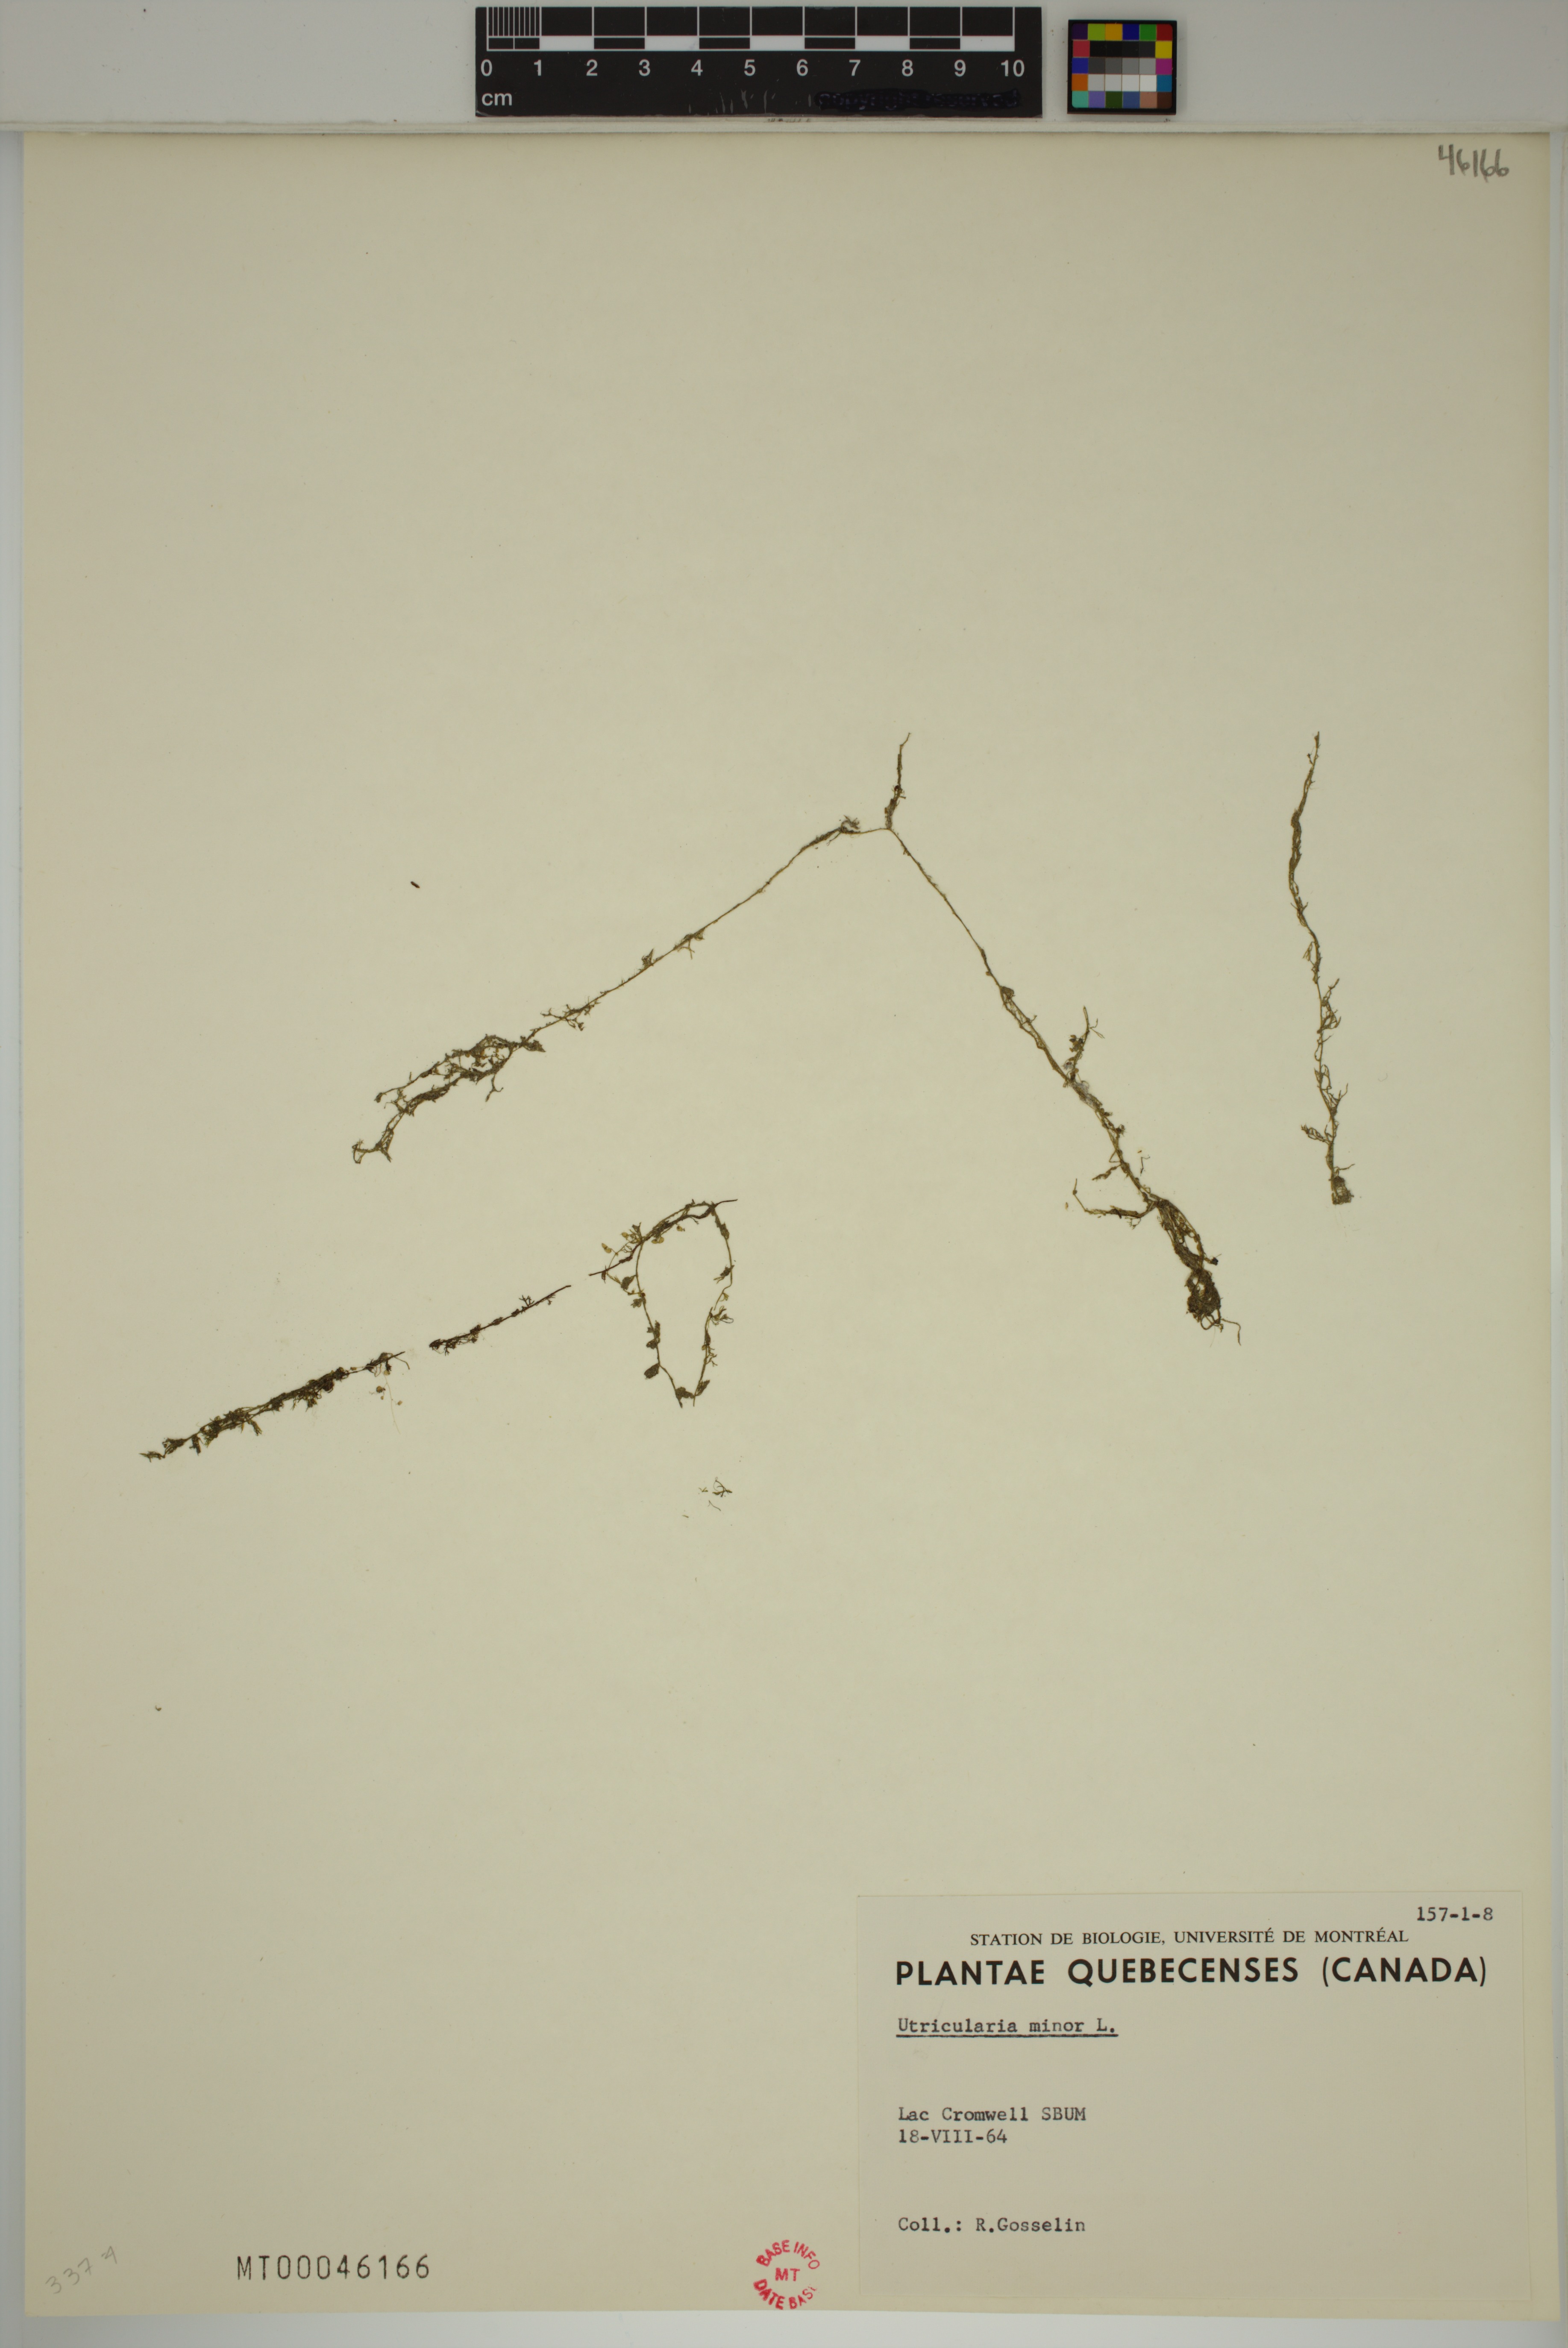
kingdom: Plantae
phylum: Tracheophyta
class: Magnoliopsida
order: Lamiales
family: Lentibulariaceae
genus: Utricularia
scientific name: Utricularia minor
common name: Lesser bladderwort
